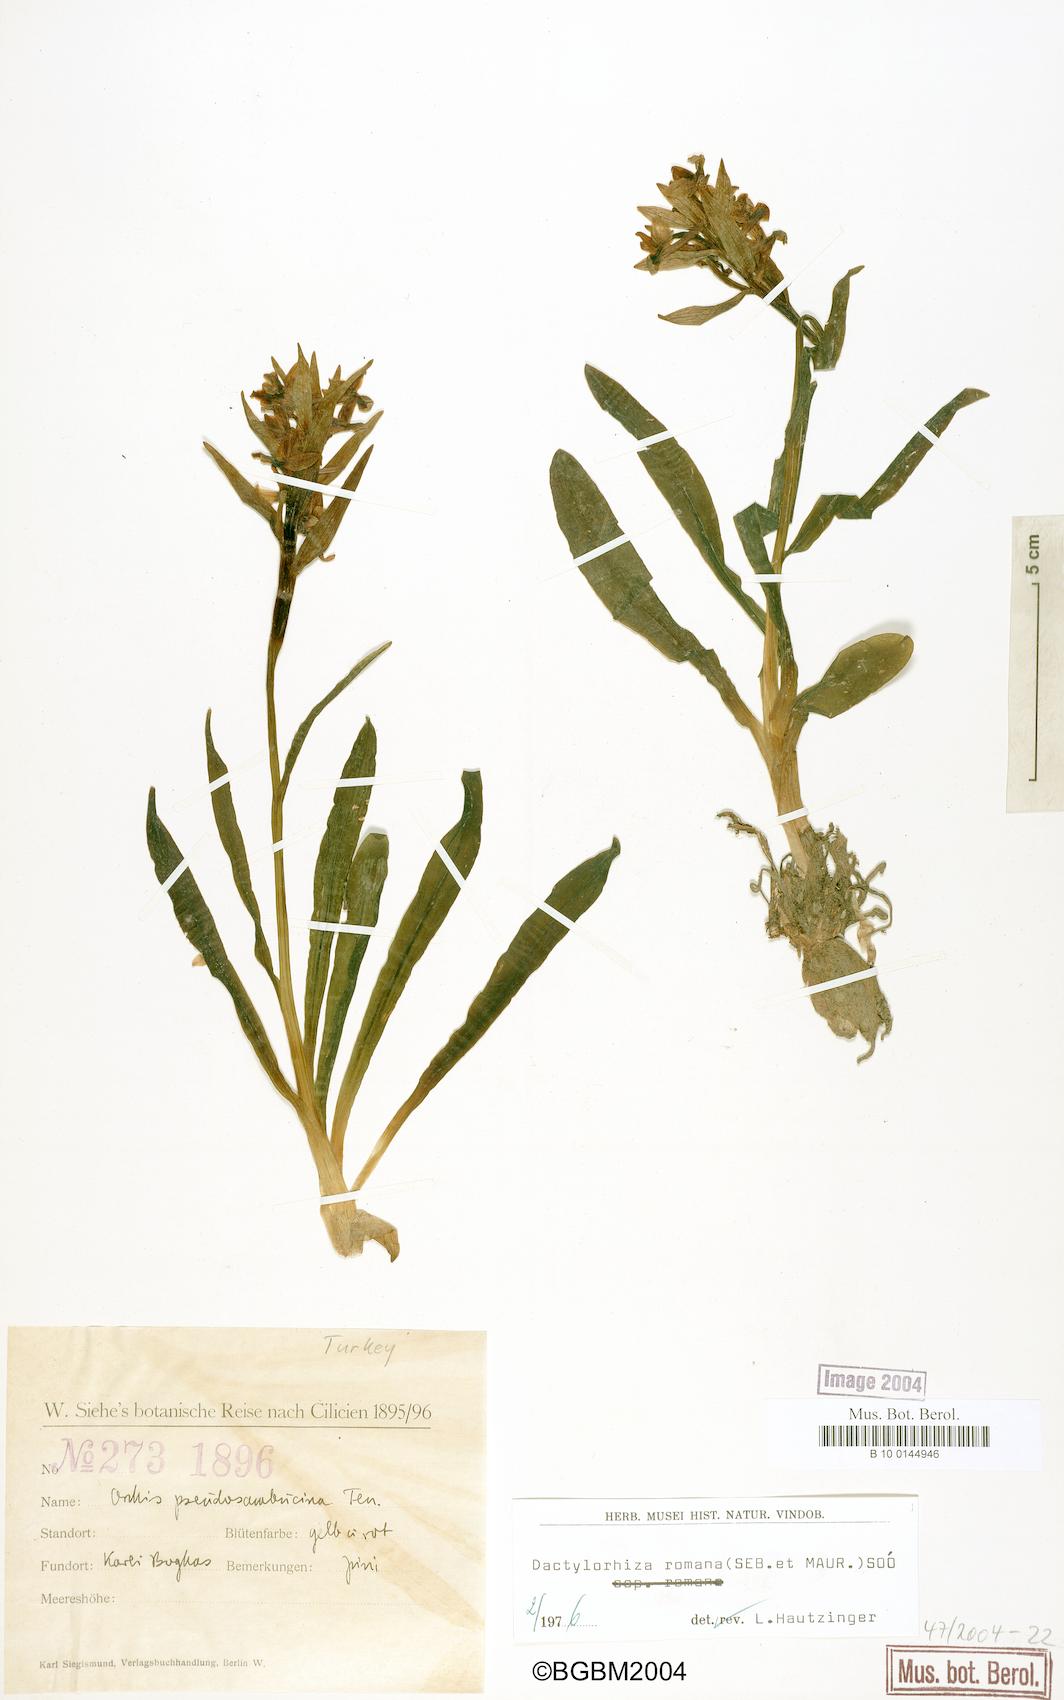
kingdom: Plantae
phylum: Tracheophyta
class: Liliopsida
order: Asparagales
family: Orchidaceae
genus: Dactylorhiza
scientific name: Dactylorhiza romana
